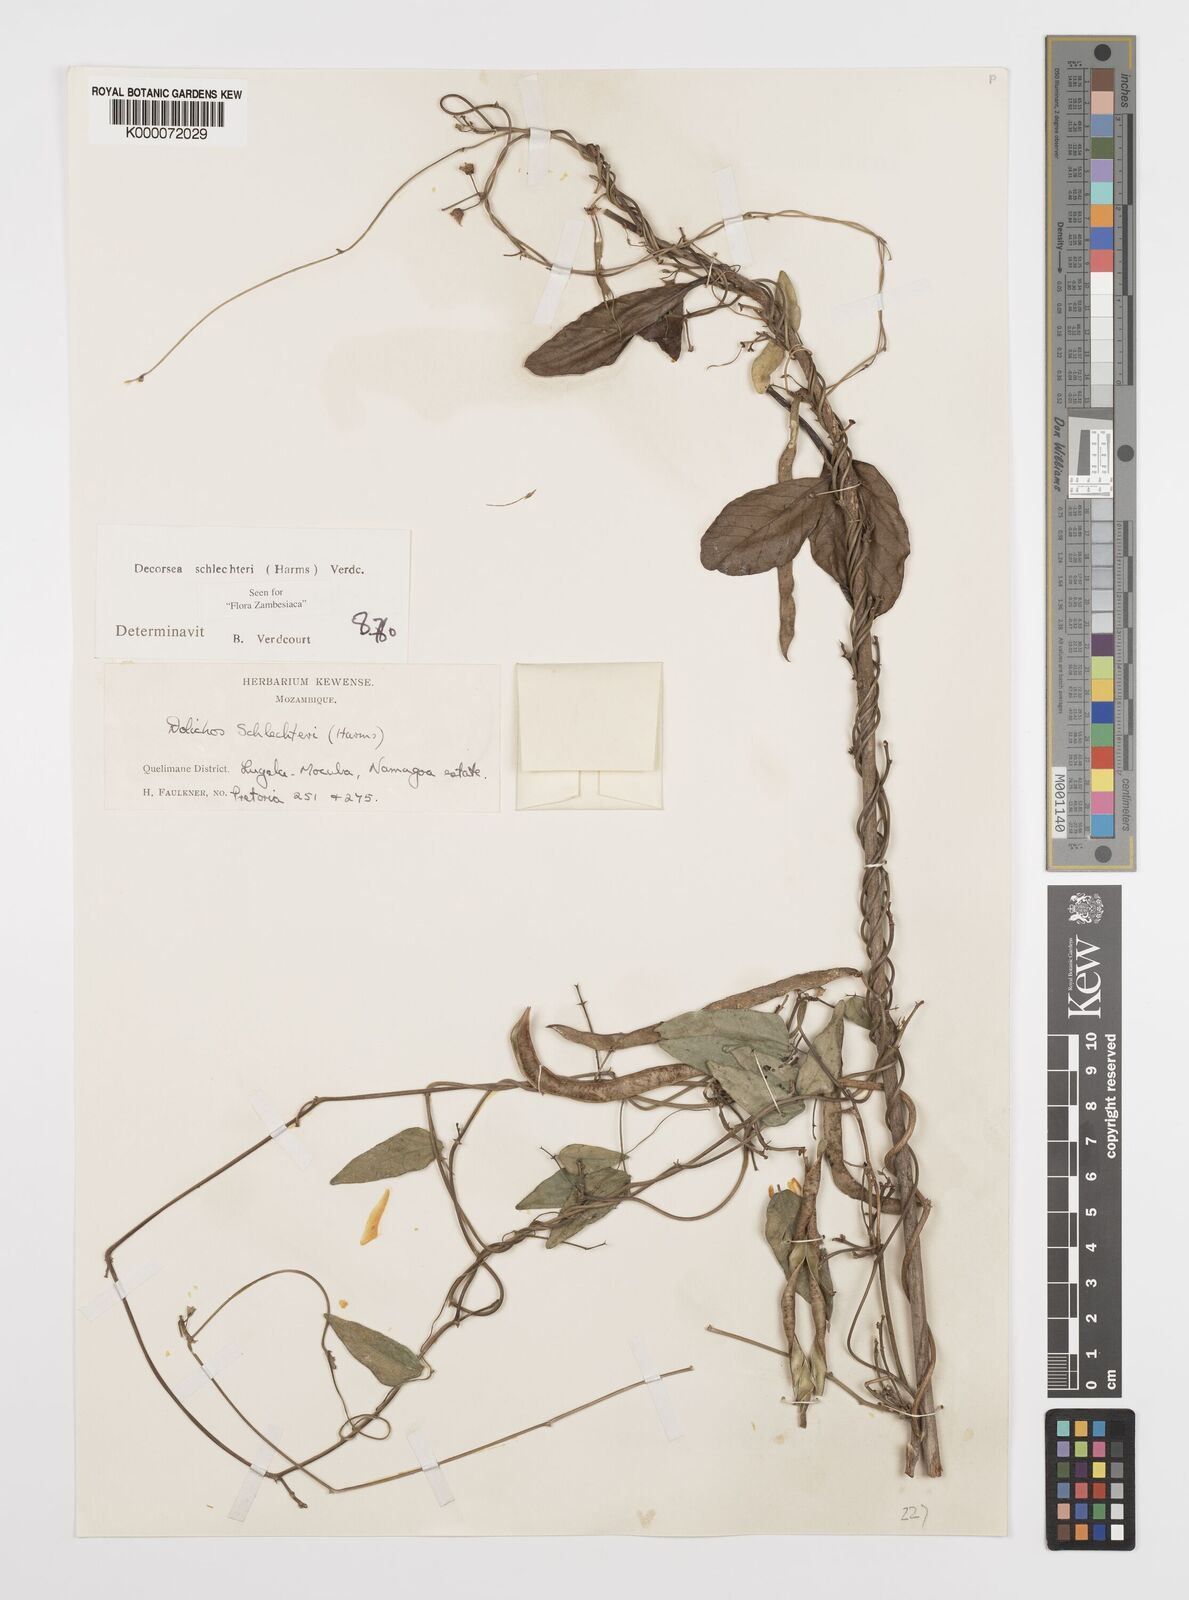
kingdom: Plantae
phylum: Tracheophyta
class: Magnoliopsida
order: Fabales
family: Fabaceae
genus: Decorsea
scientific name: Decorsea schlechteri
